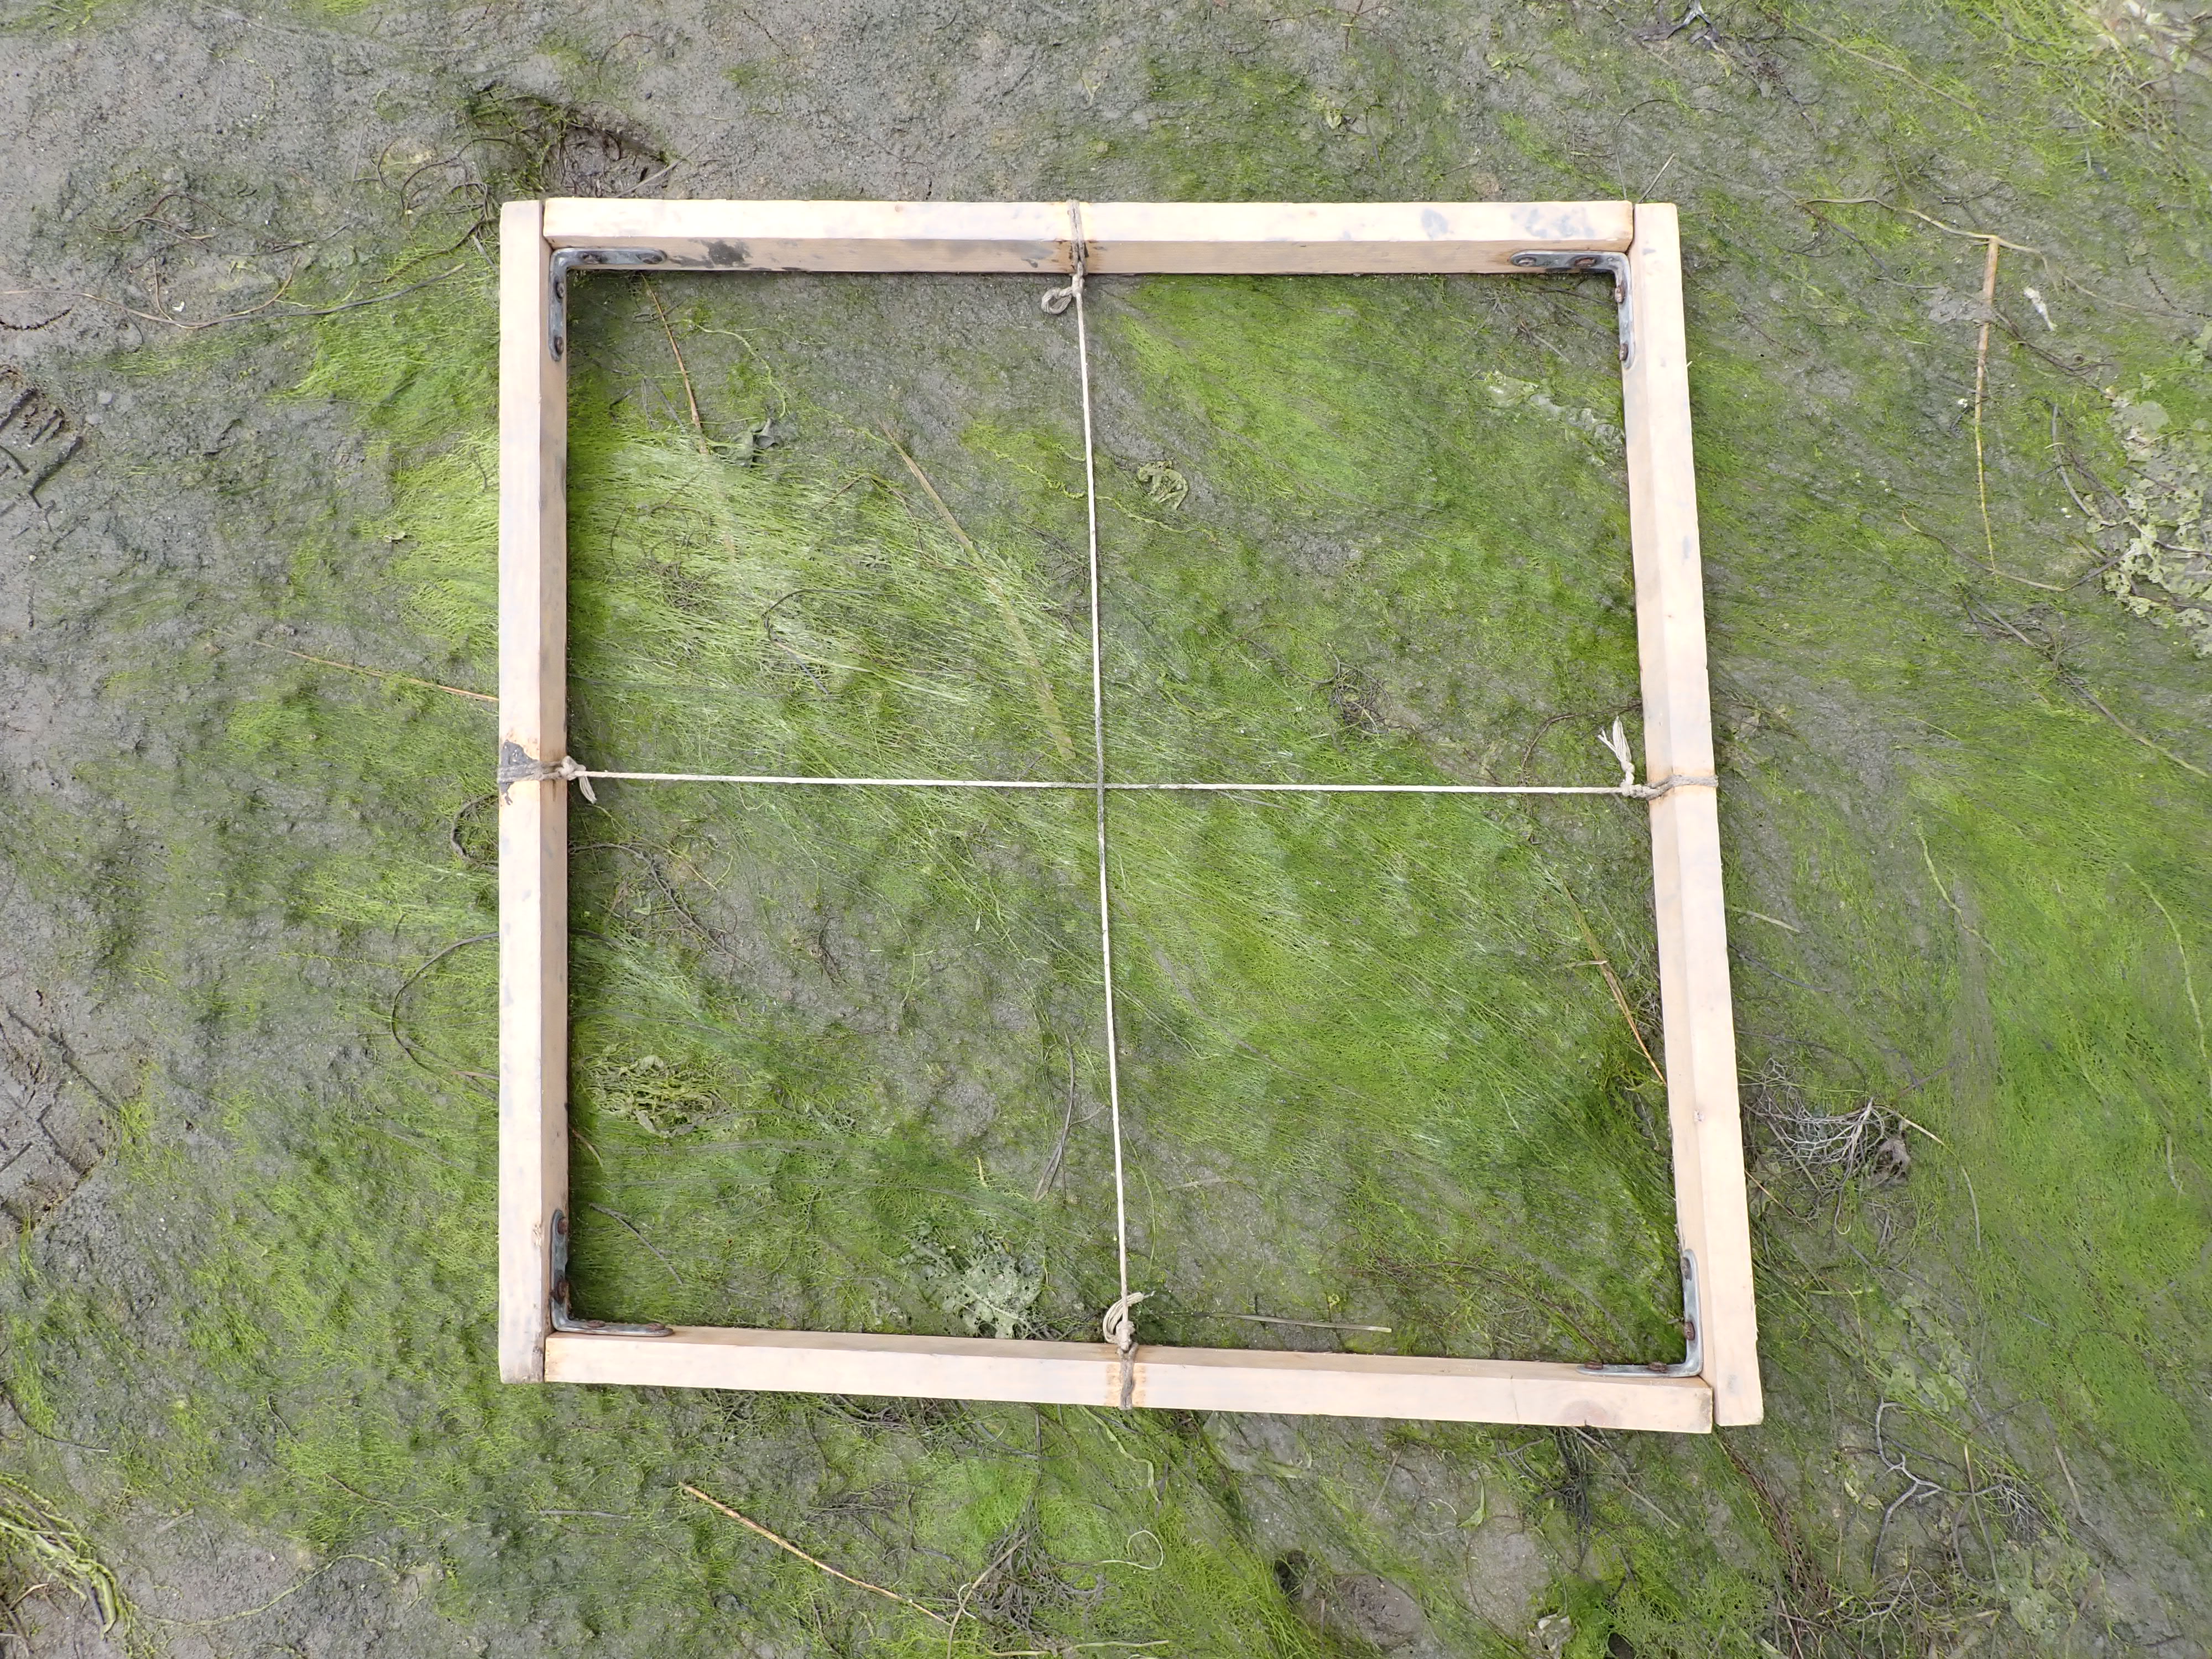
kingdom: Plantae
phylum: Chlorophyta
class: Ulvophyceae
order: Ulvales
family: Ulvaceae
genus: Ulva
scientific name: Ulva
